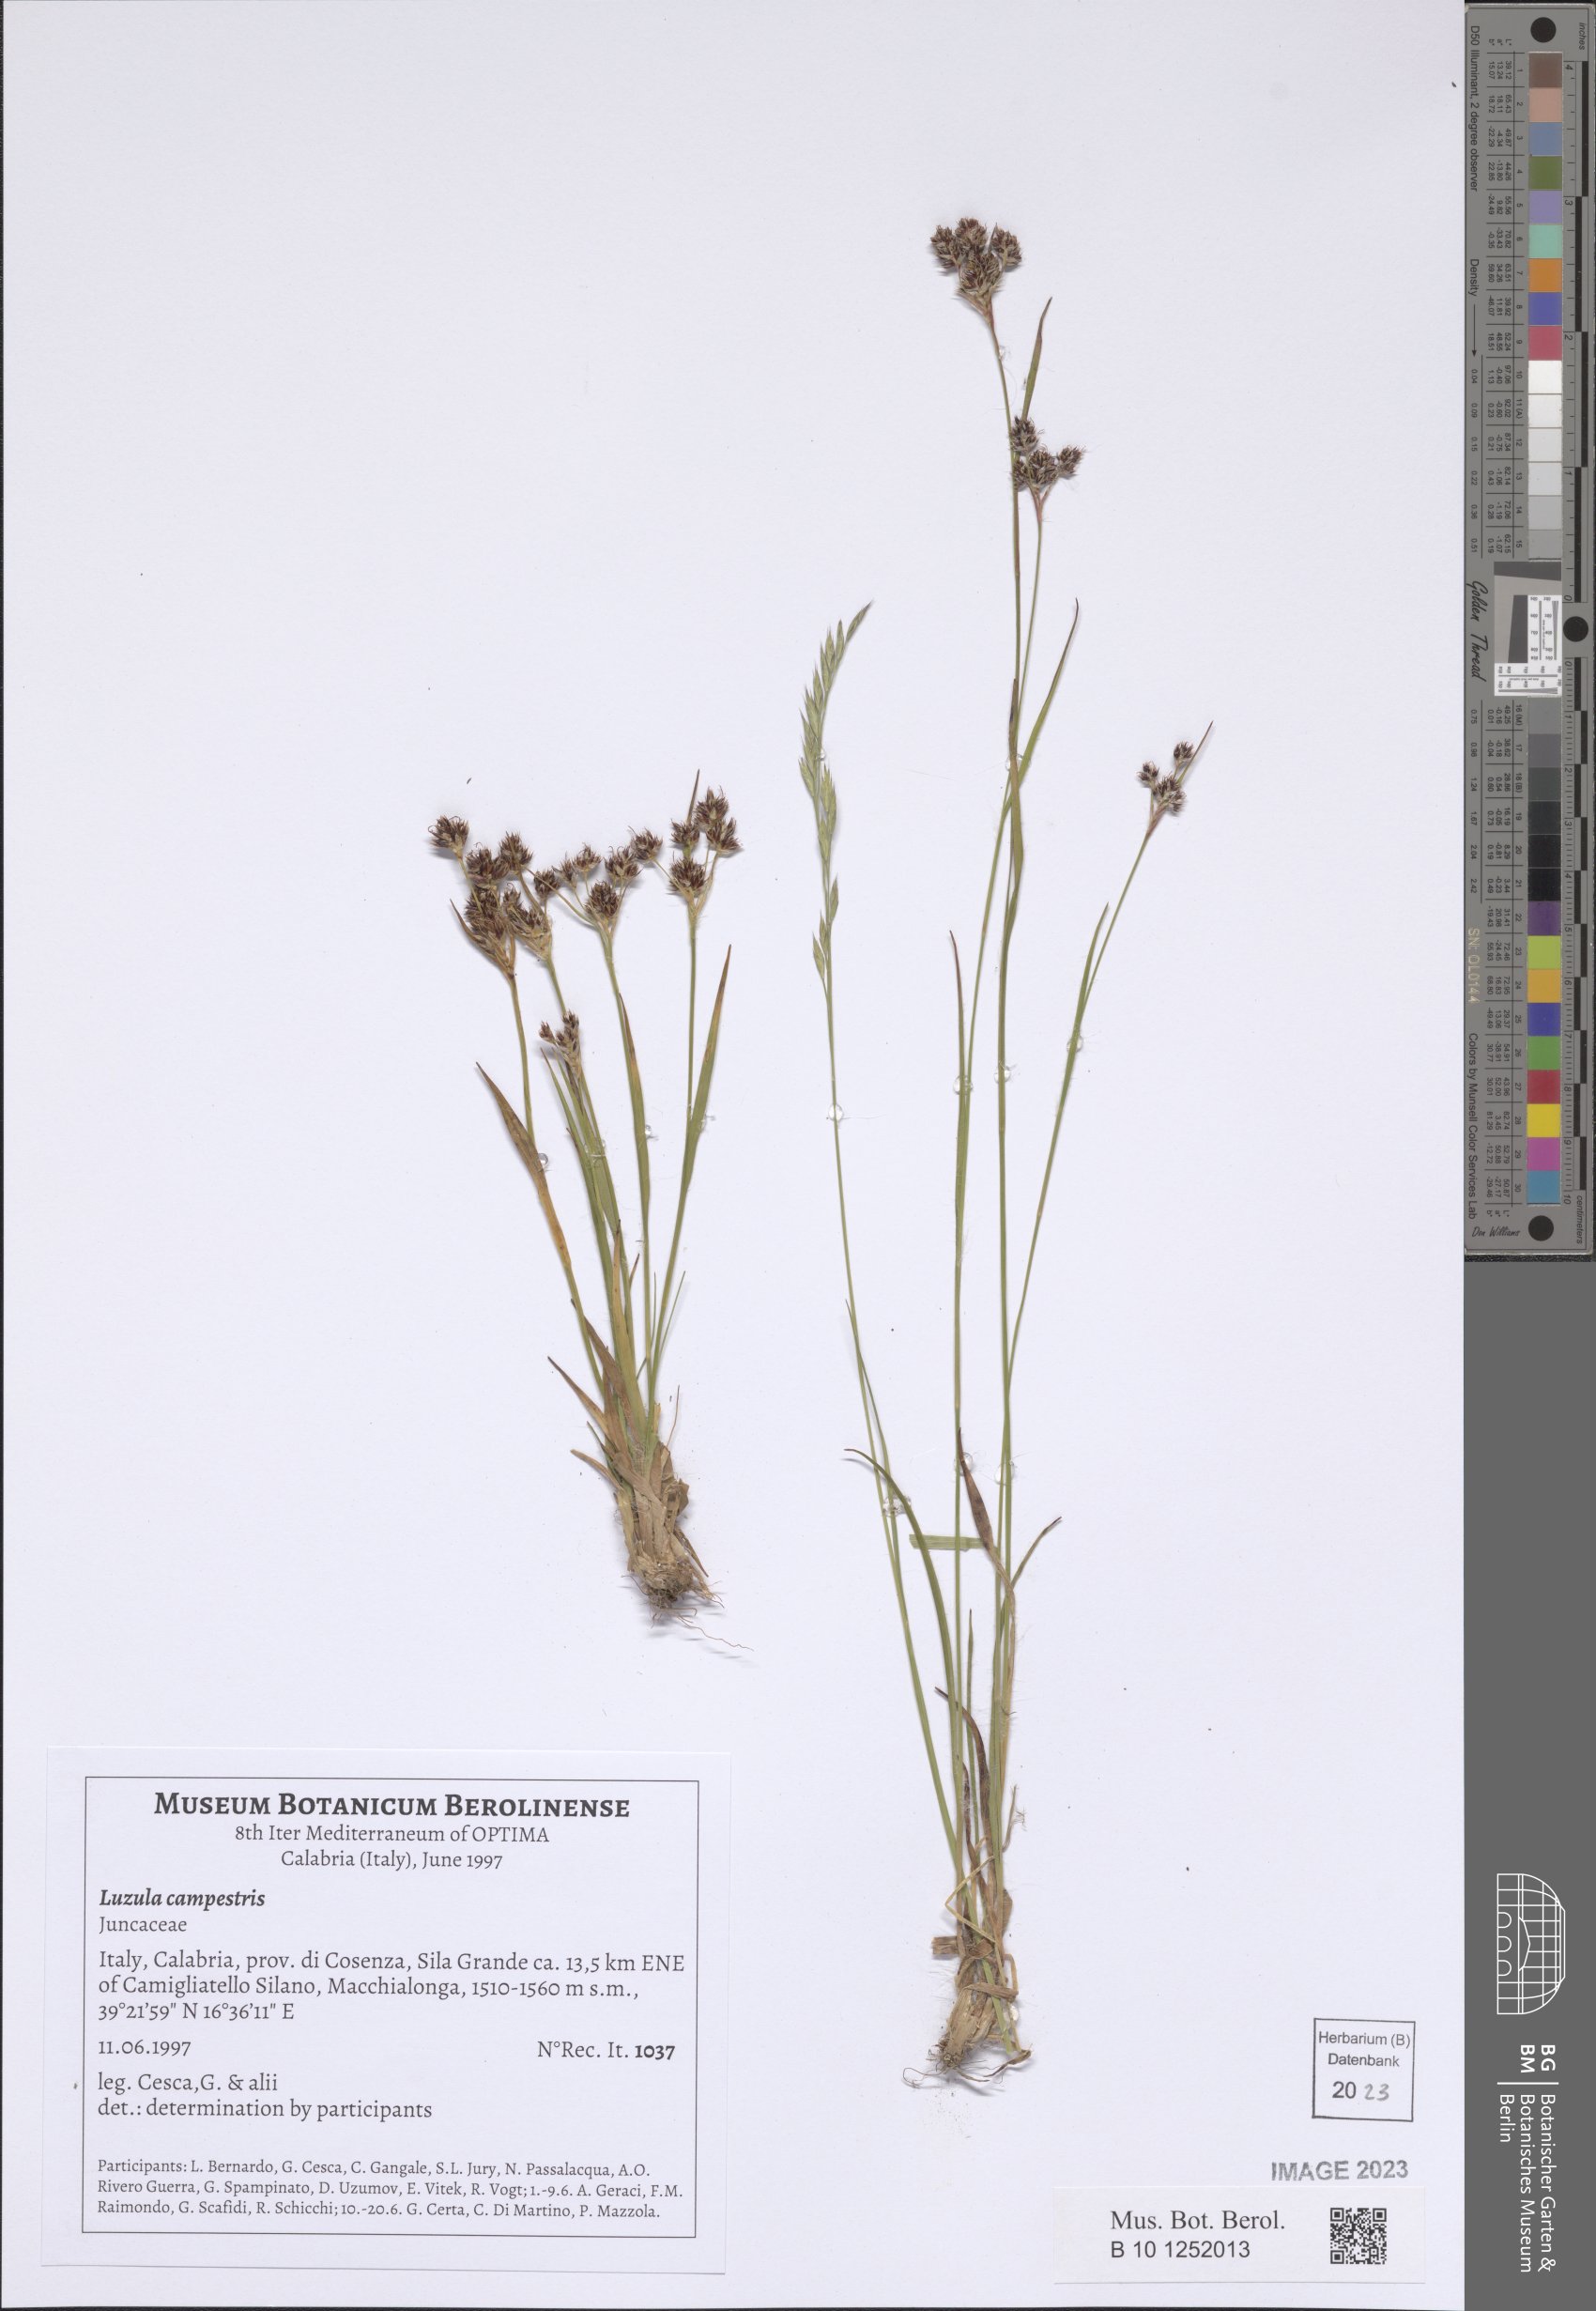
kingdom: Plantae
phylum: Tracheophyta
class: Liliopsida
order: Poales
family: Juncaceae
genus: Luzula
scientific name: Luzula campestris
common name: Field wood-rush
